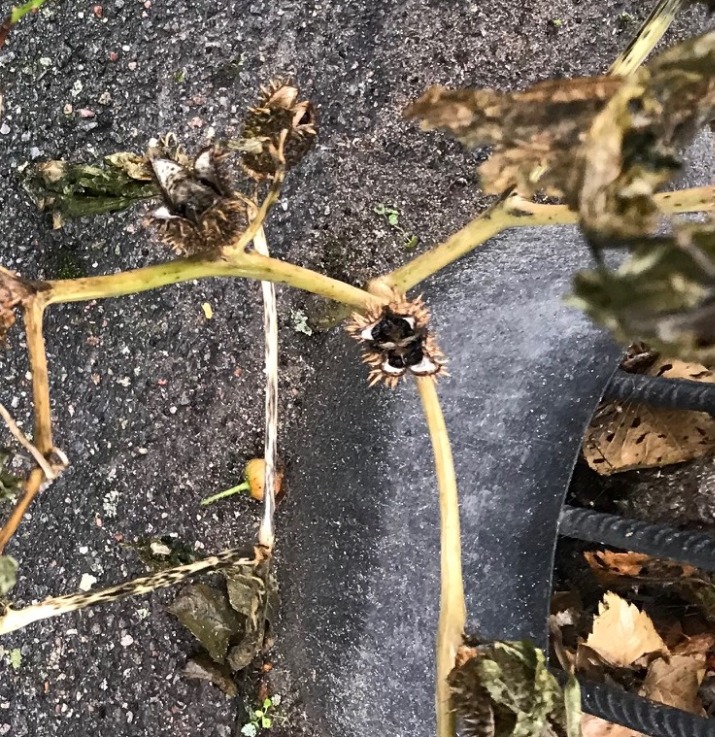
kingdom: Plantae
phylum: Tracheophyta
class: Magnoliopsida
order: Solanales
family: Solanaceae
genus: Datura
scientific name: Datura stramonium
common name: Pigæble
